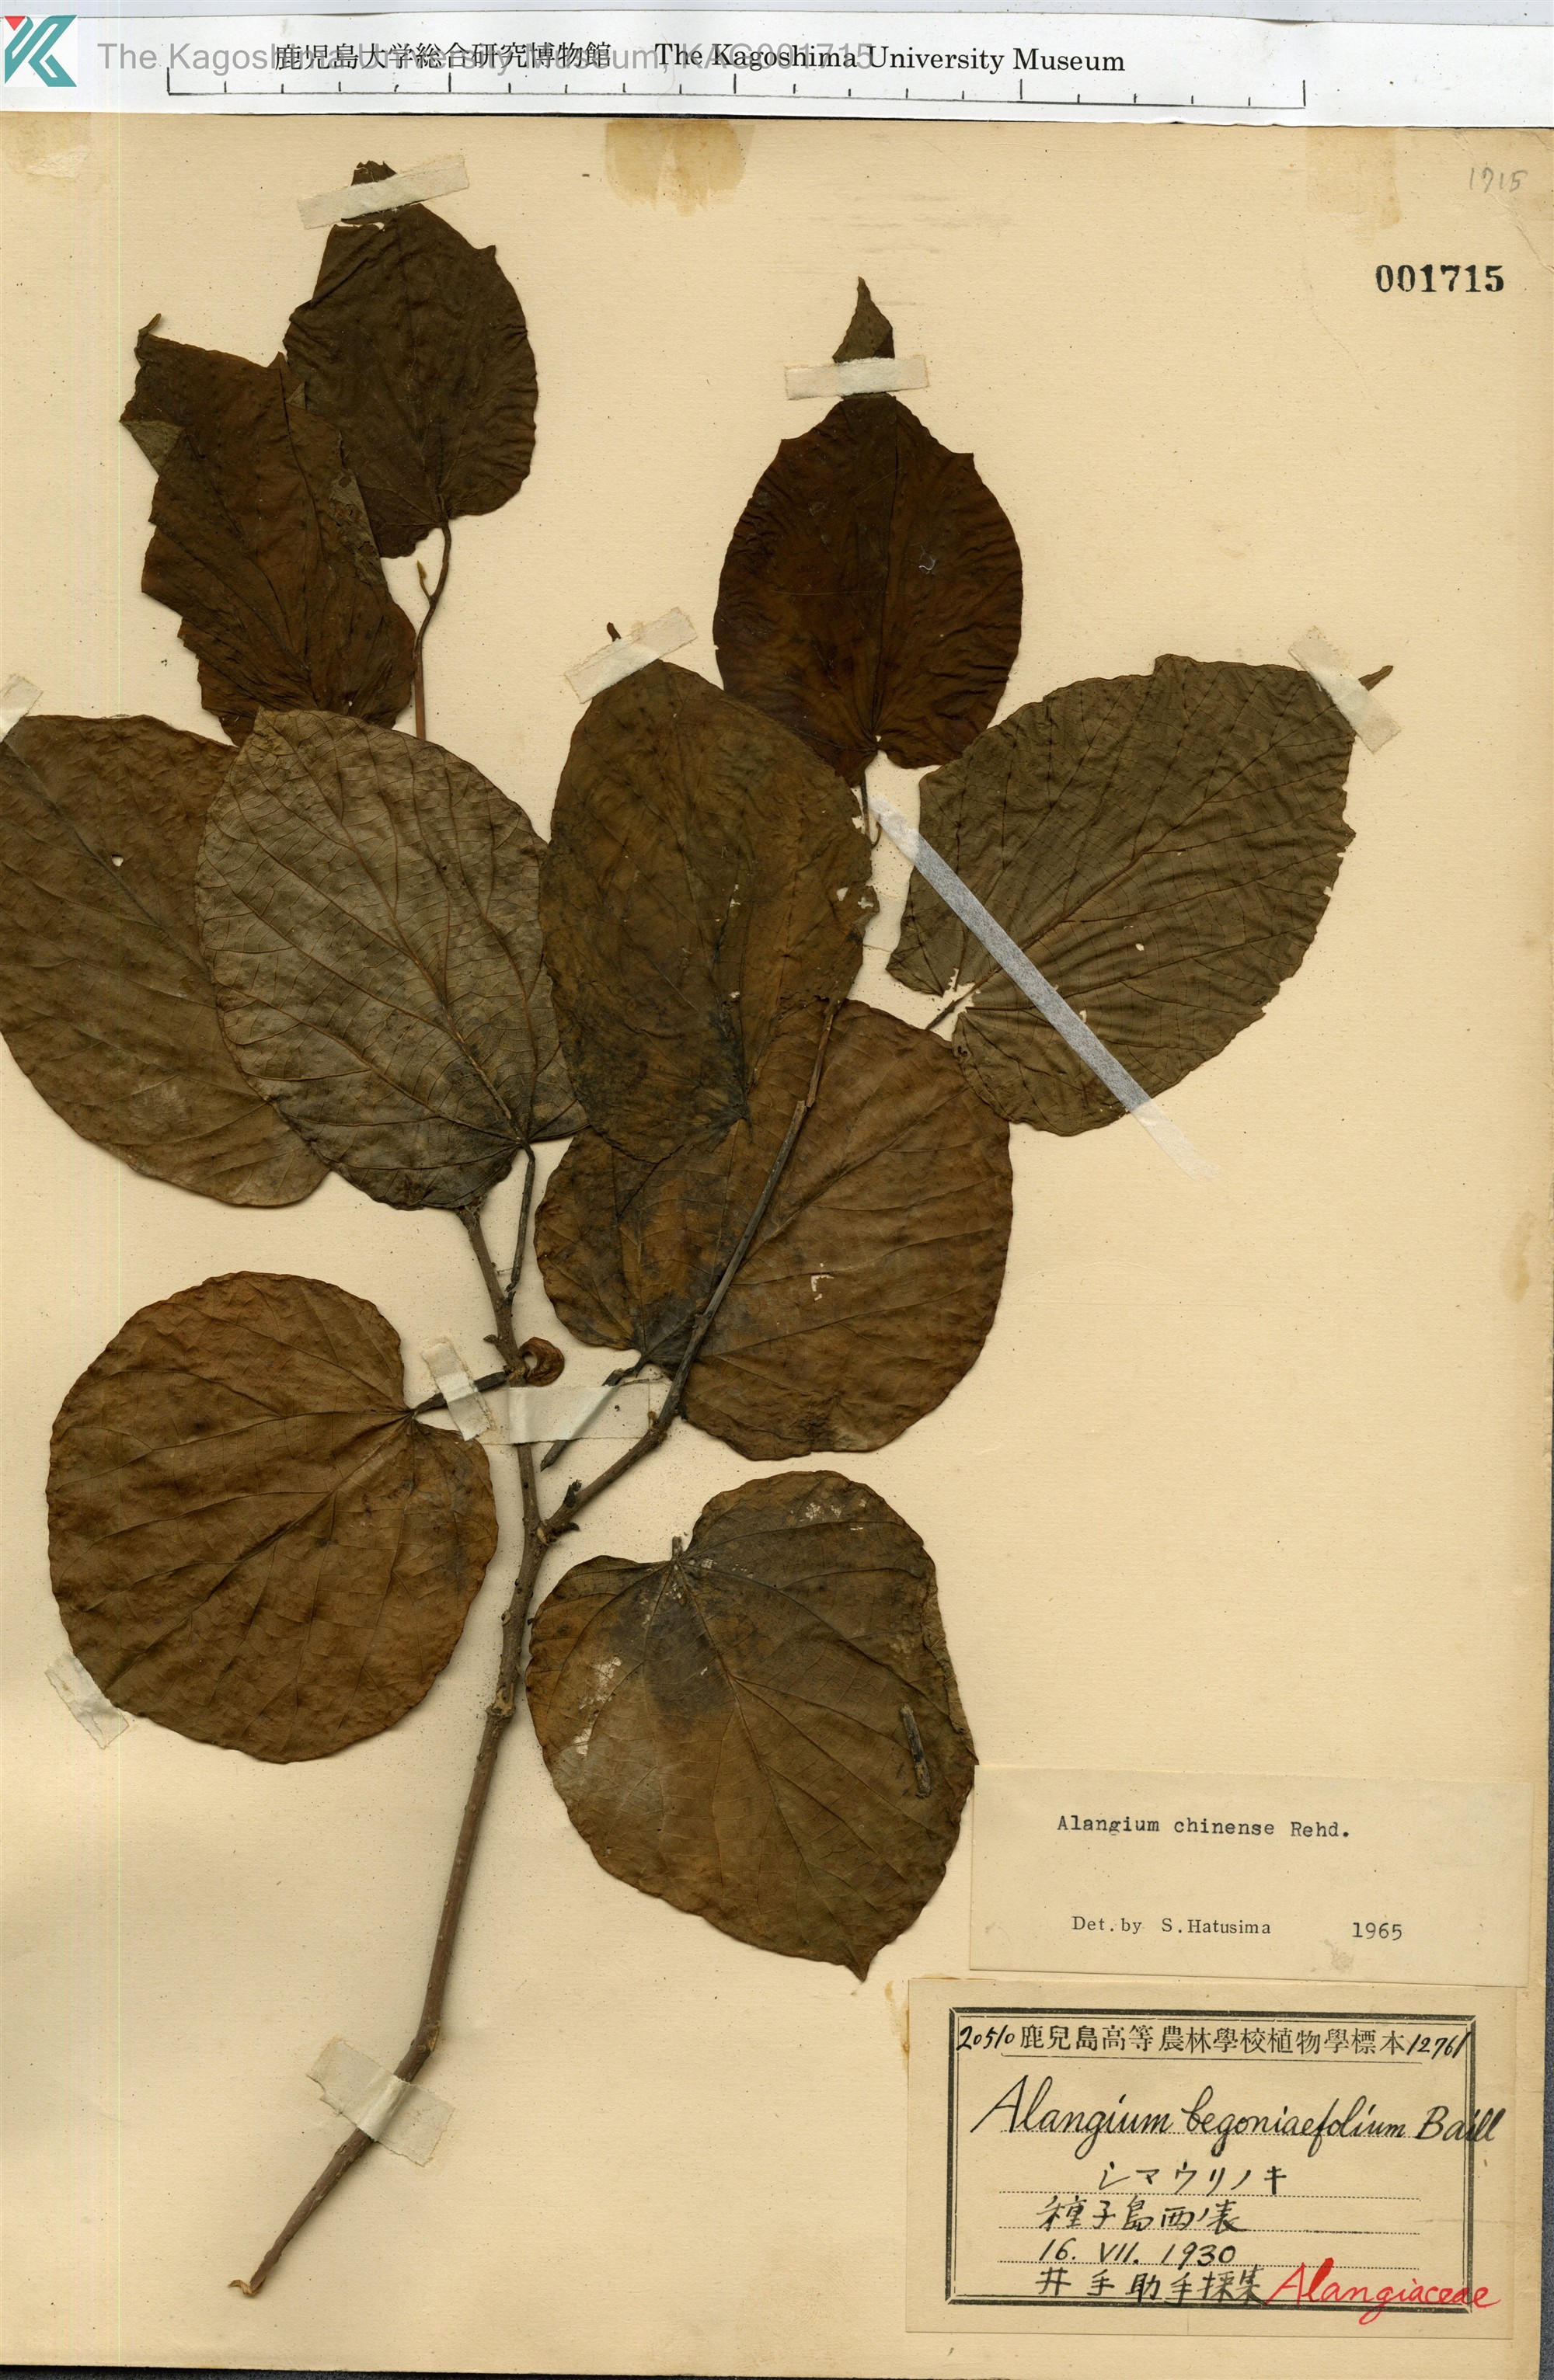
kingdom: Plantae
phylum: Tracheophyta
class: Magnoliopsida
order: Cornales
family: Cornaceae
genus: Alangium
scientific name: Alangium chinense
